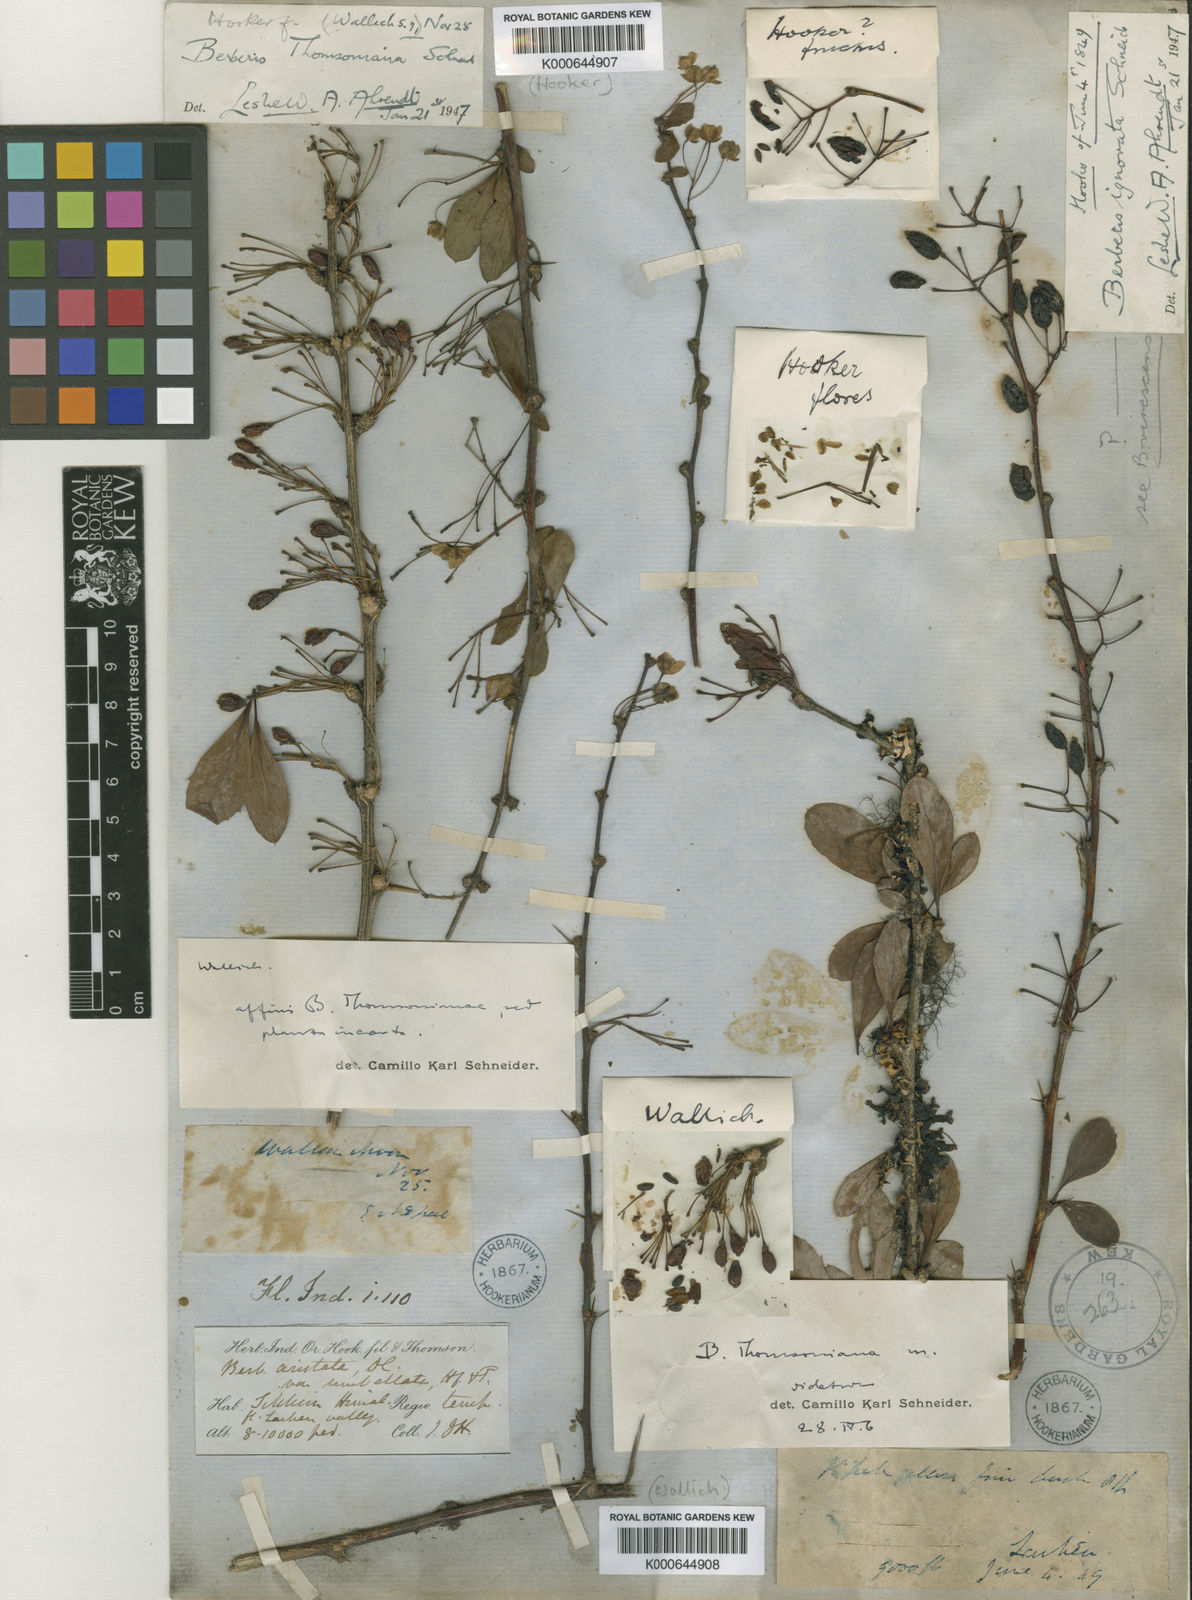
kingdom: Plantae
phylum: Tracheophyta
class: Magnoliopsida
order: Ranunculales
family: Berberidaceae
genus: Berberis
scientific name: Berberis thomsoniana
